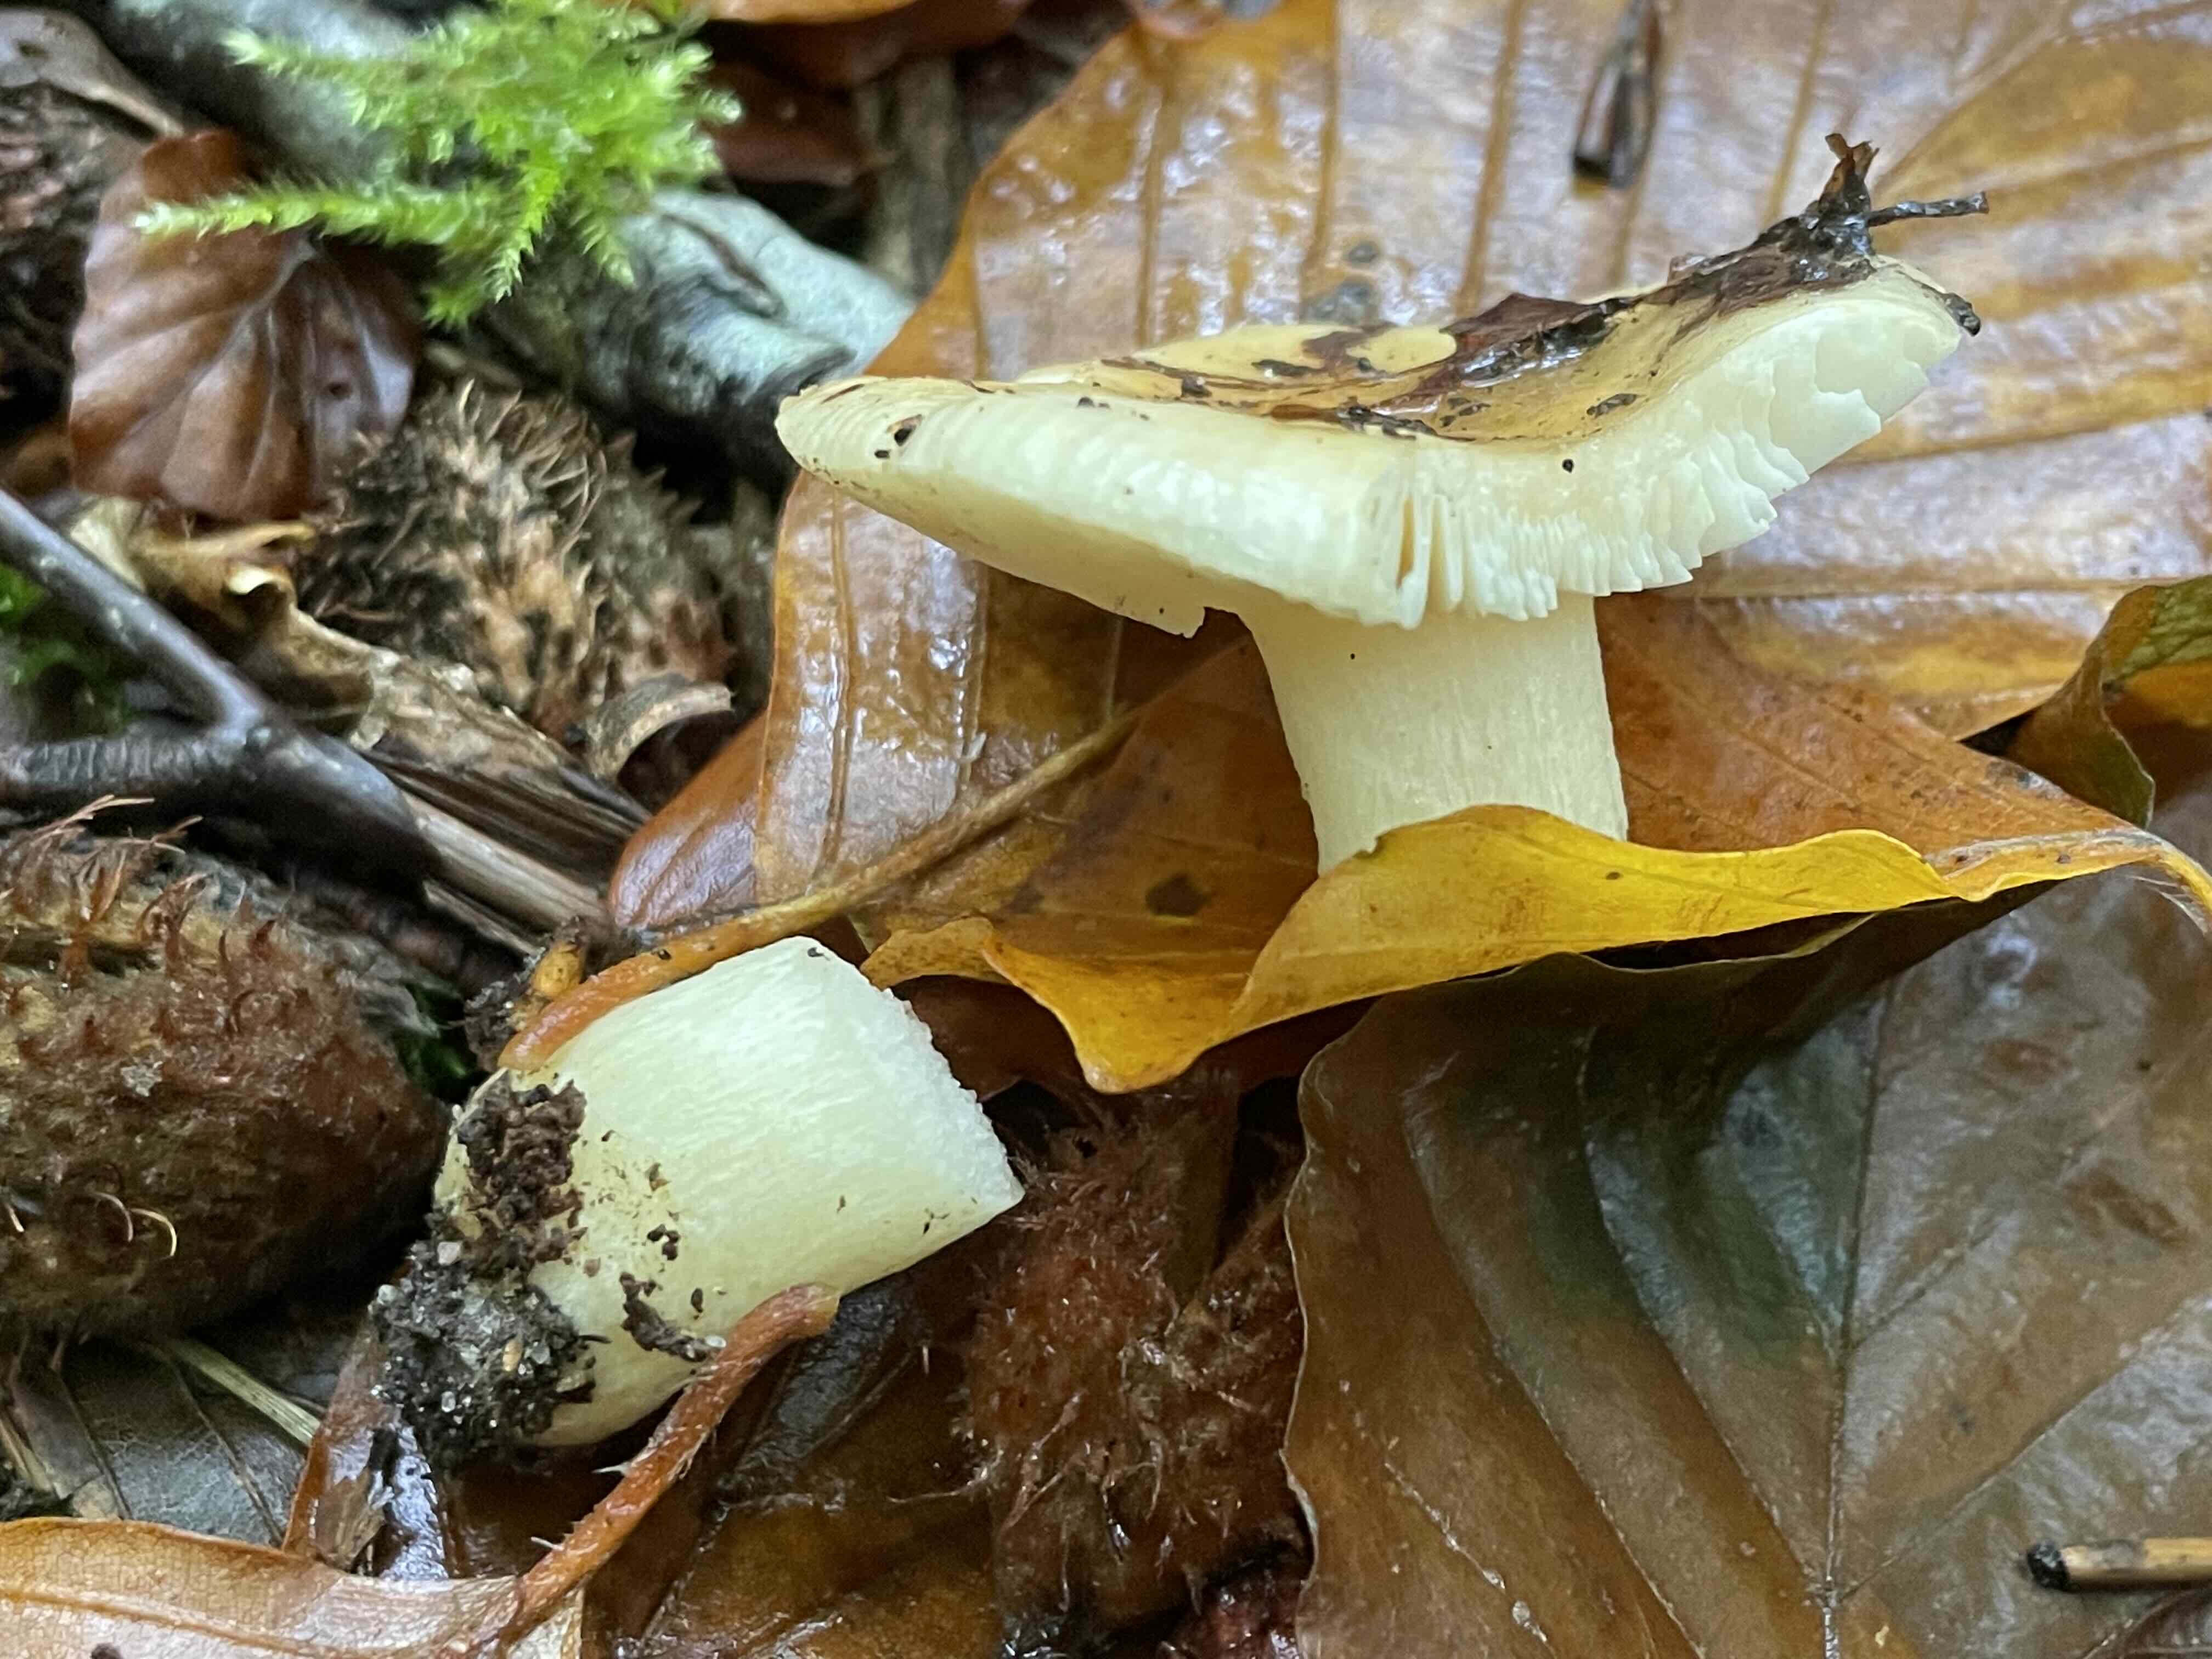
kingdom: Fungi
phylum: Basidiomycota
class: Agaricomycetes
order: Russulales
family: Russulaceae
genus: Russula
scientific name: Russula fellea
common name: galde-skørhat
